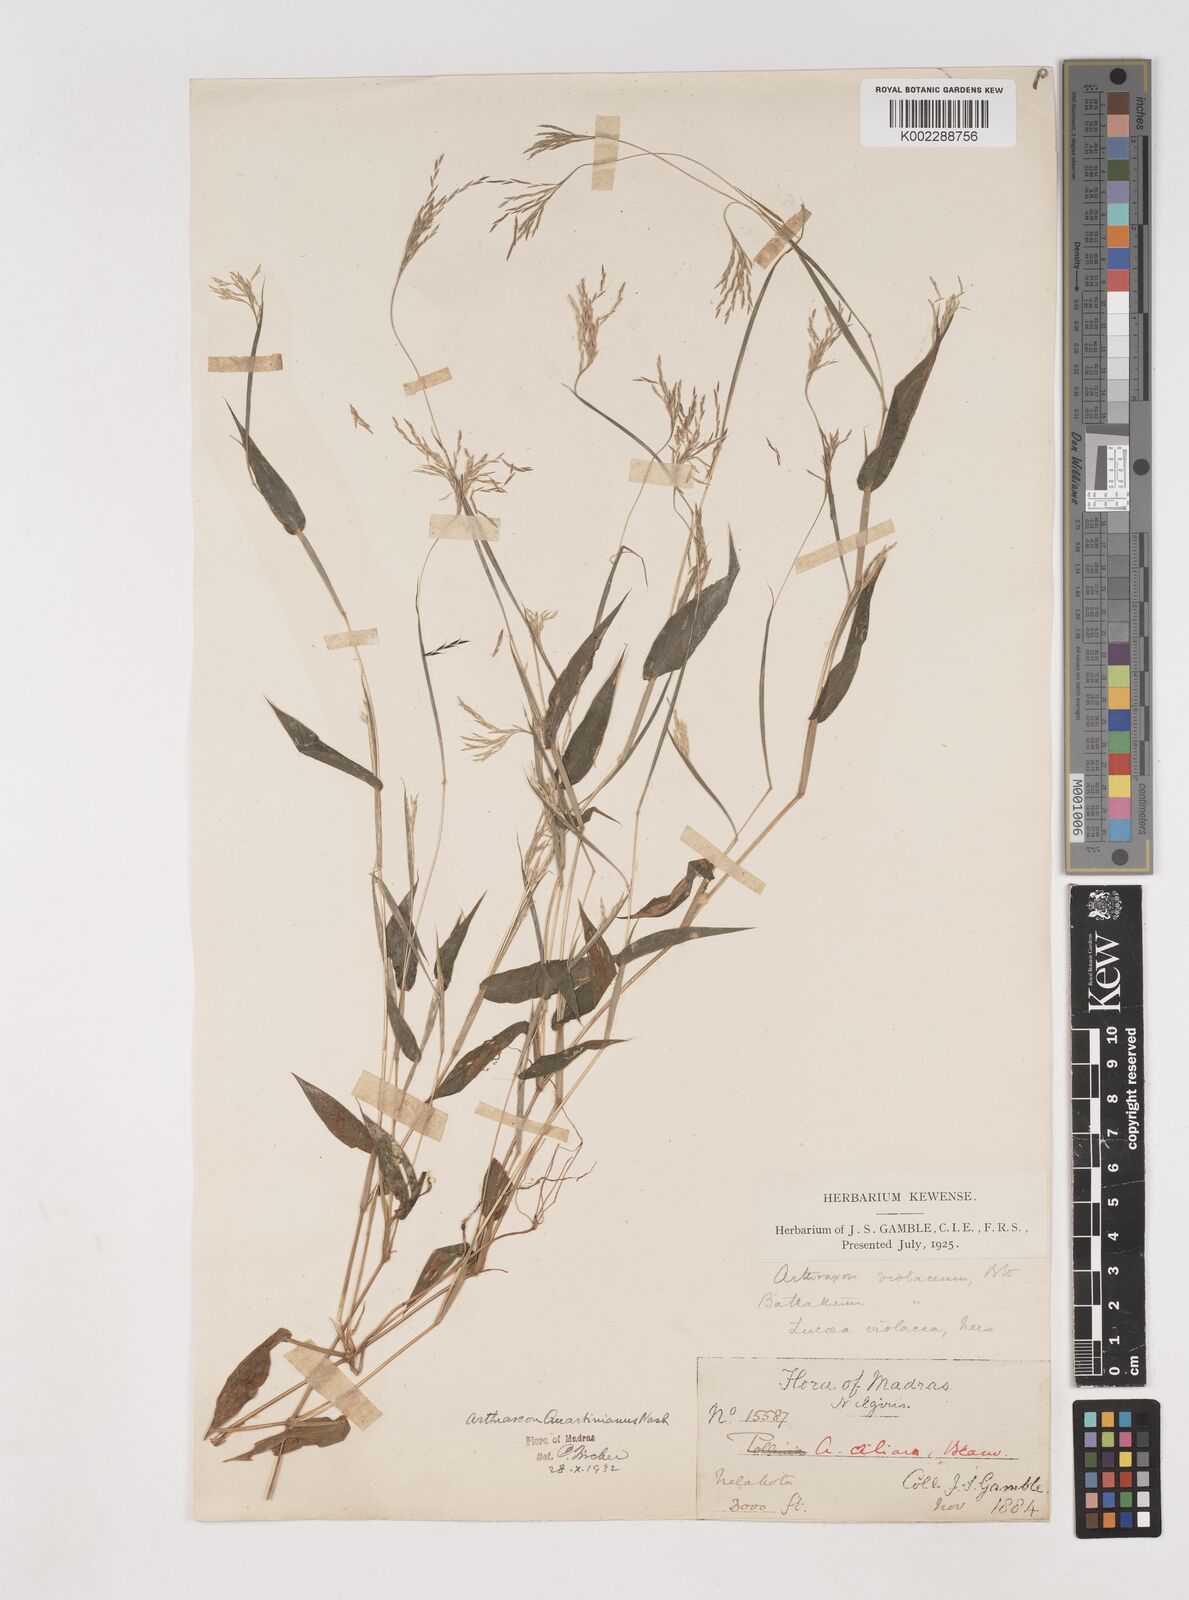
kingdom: Plantae
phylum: Tracheophyta
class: Liliopsida
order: Poales
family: Poaceae
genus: Arthraxon
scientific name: Arthraxon hispidus
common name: Small carpgrass
